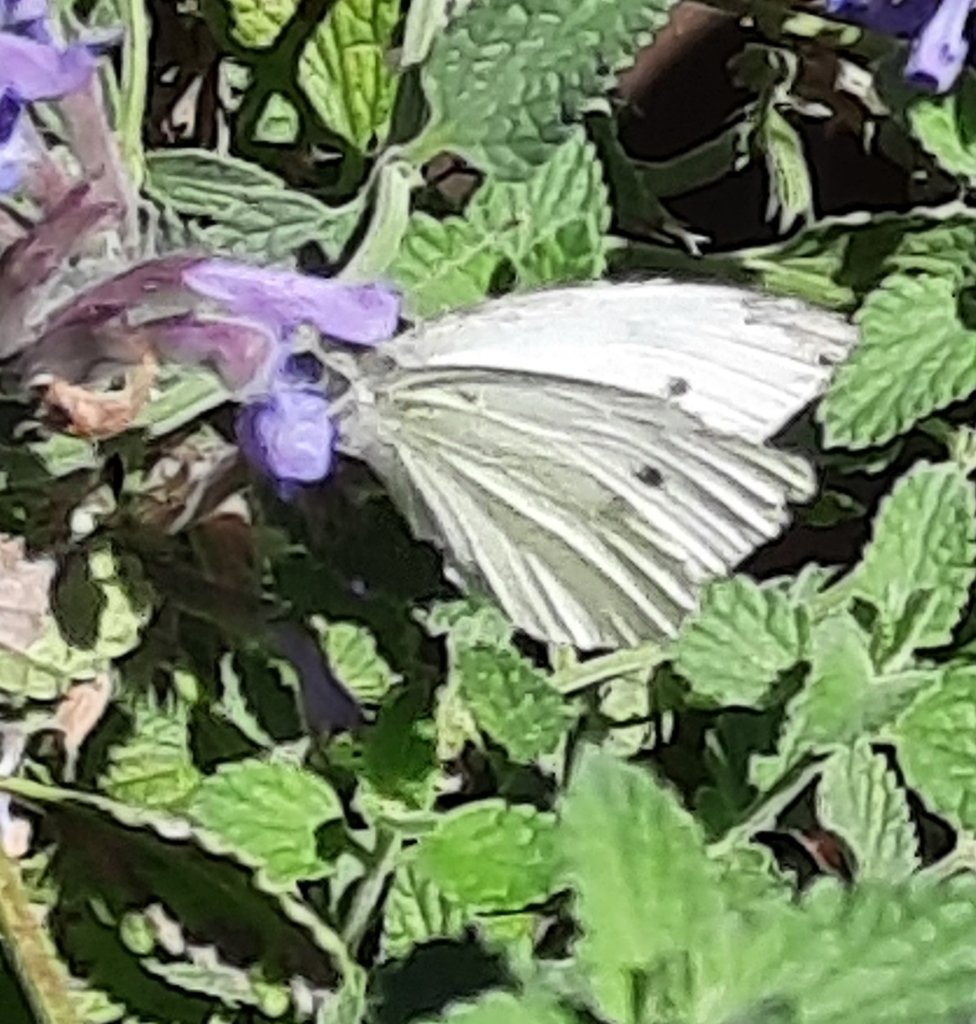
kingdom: Animalia
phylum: Arthropoda
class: Insecta
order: Lepidoptera
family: Pieridae
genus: Pieris
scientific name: Pieris rapae
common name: Cabbage White
